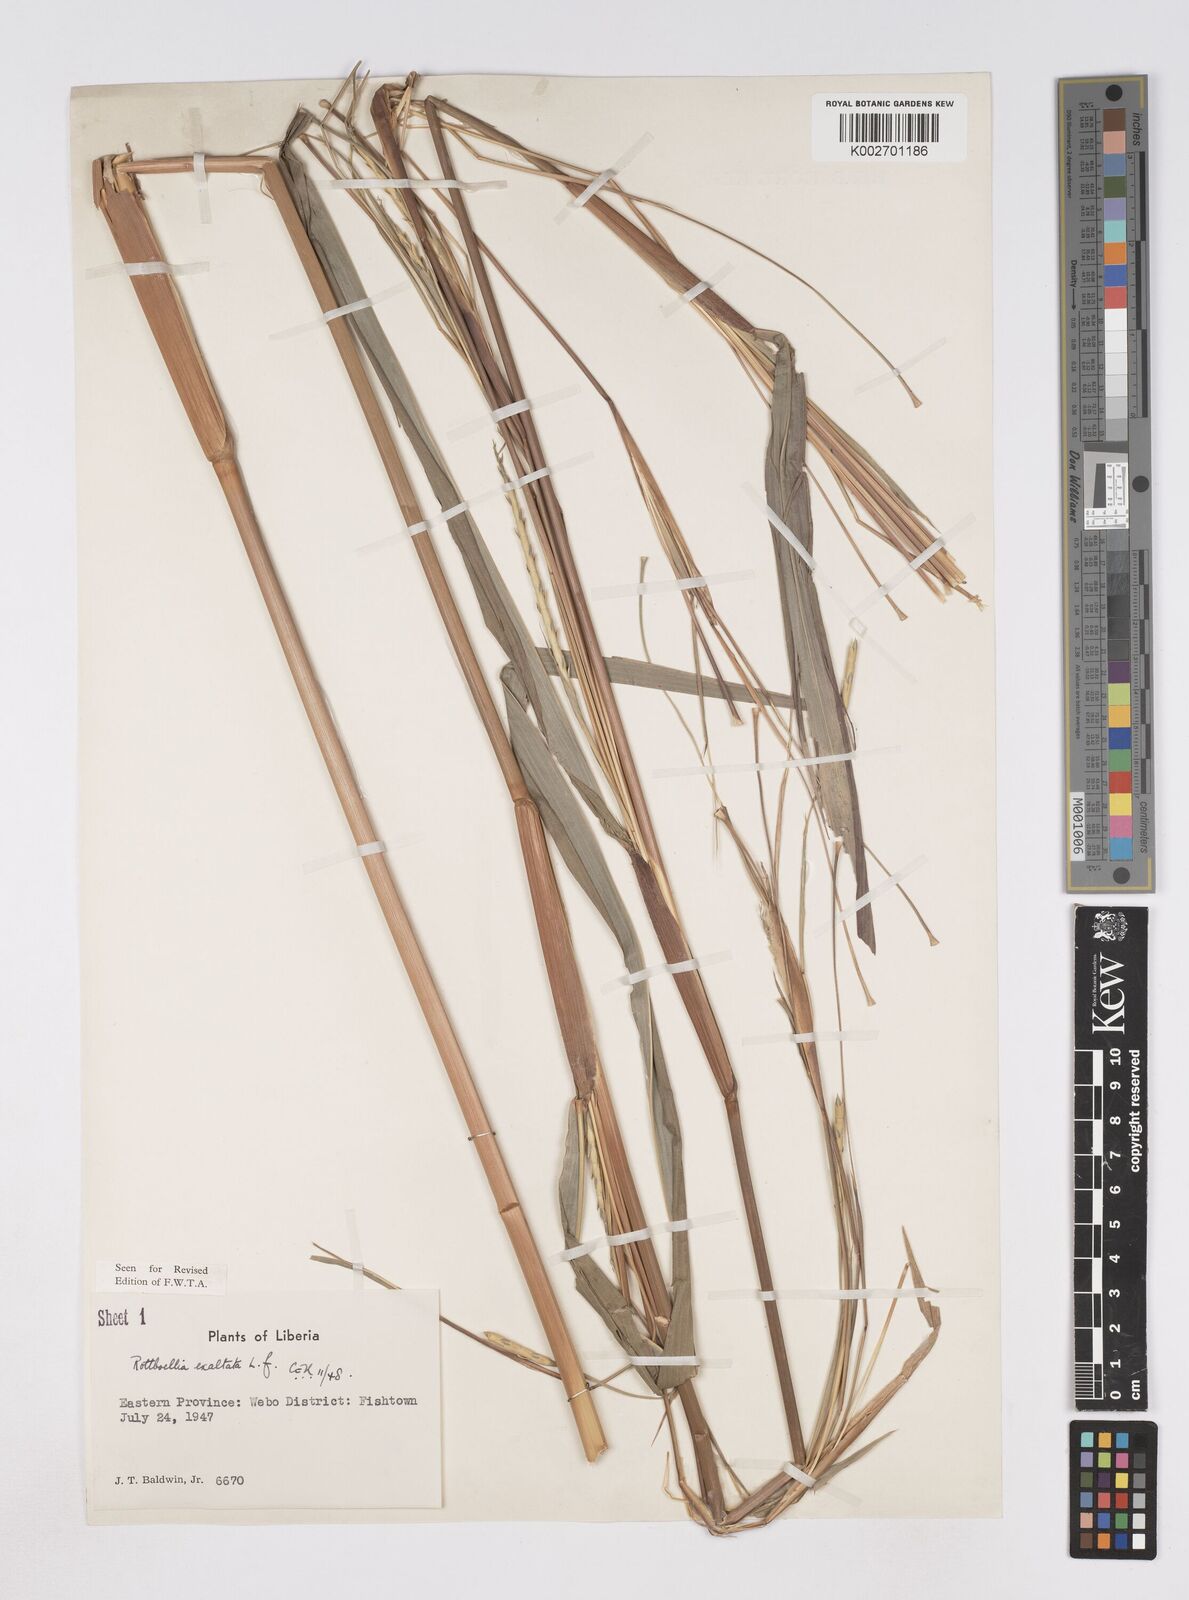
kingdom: Plantae
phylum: Tracheophyta
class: Liliopsida
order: Poales
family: Poaceae
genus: Ophiuros
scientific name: Ophiuros exaltatus
